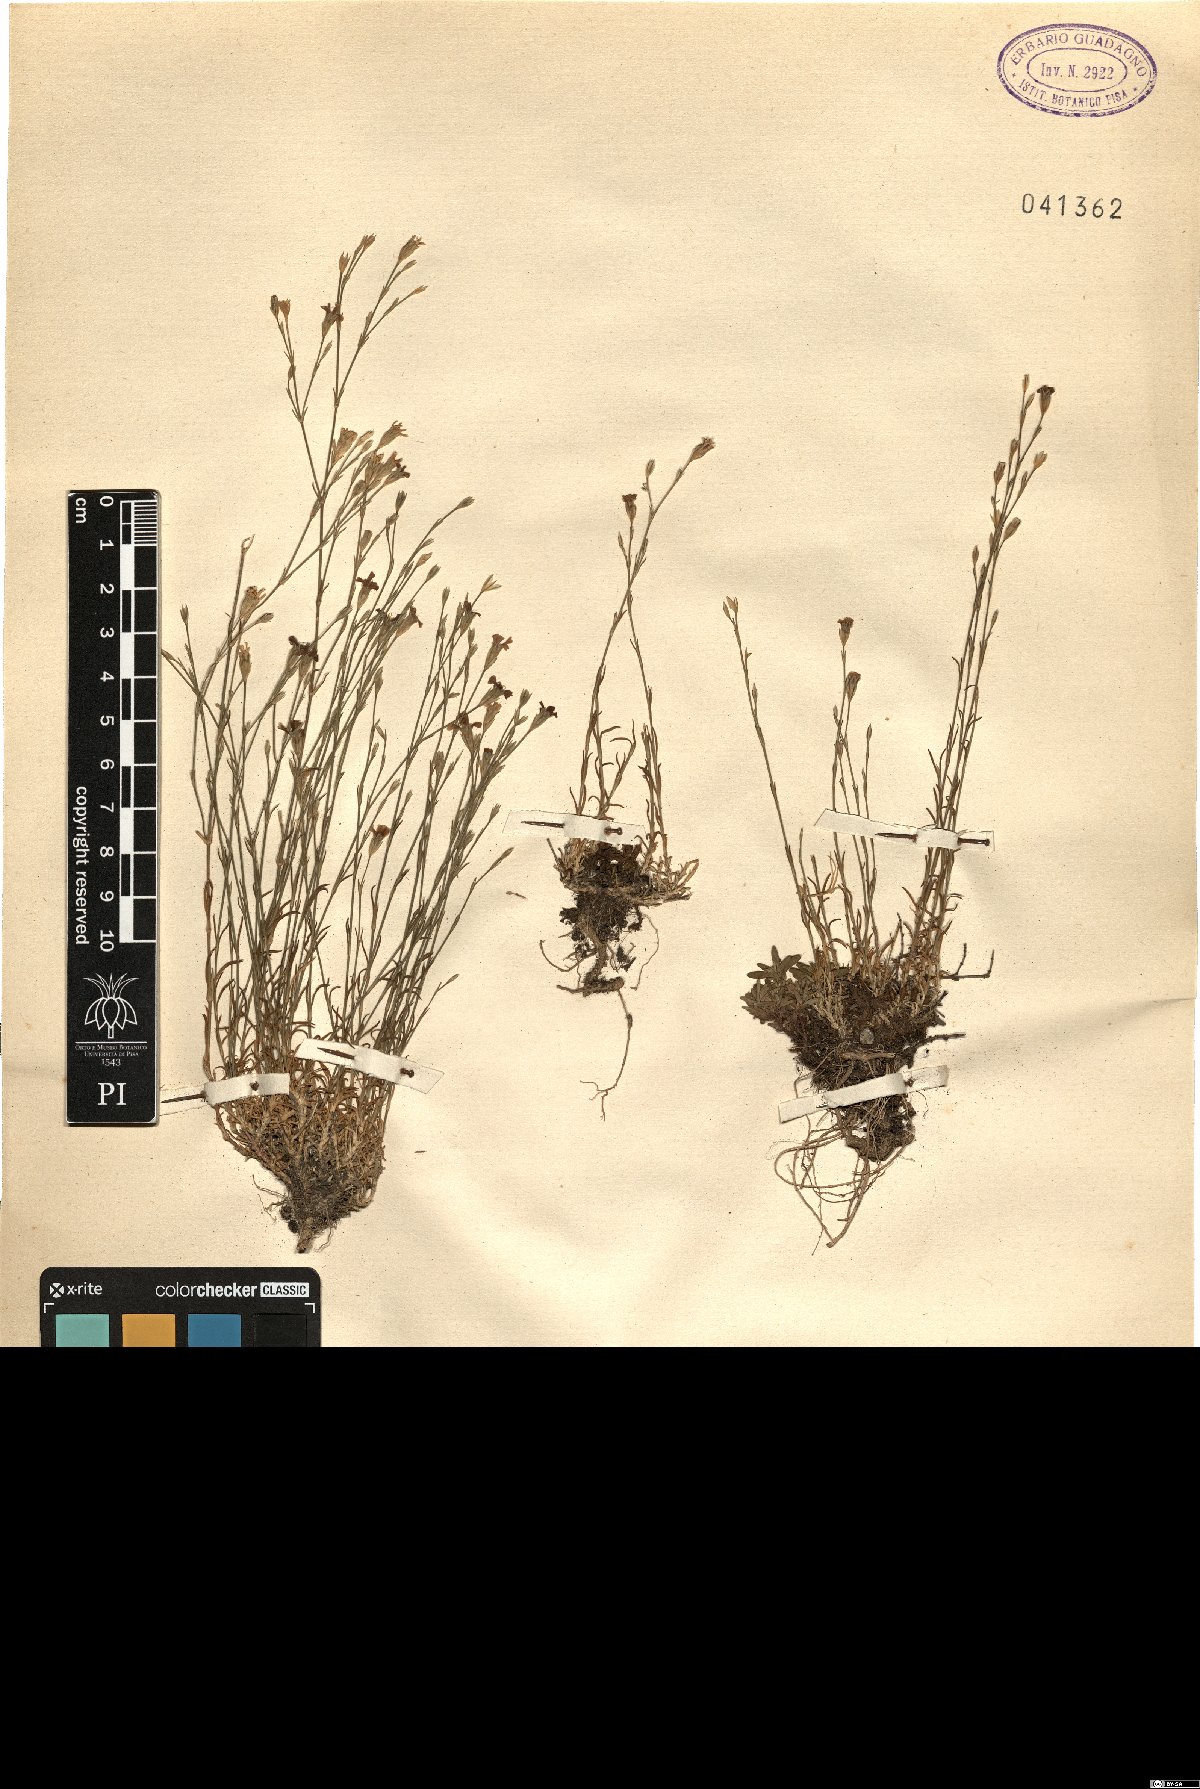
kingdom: Plantae
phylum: Tracheophyta
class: Magnoliopsida
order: Caryophyllales
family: Caryophyllaceae
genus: Petrorhagia
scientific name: Petrorhagia saxifraga
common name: Tunicflower
